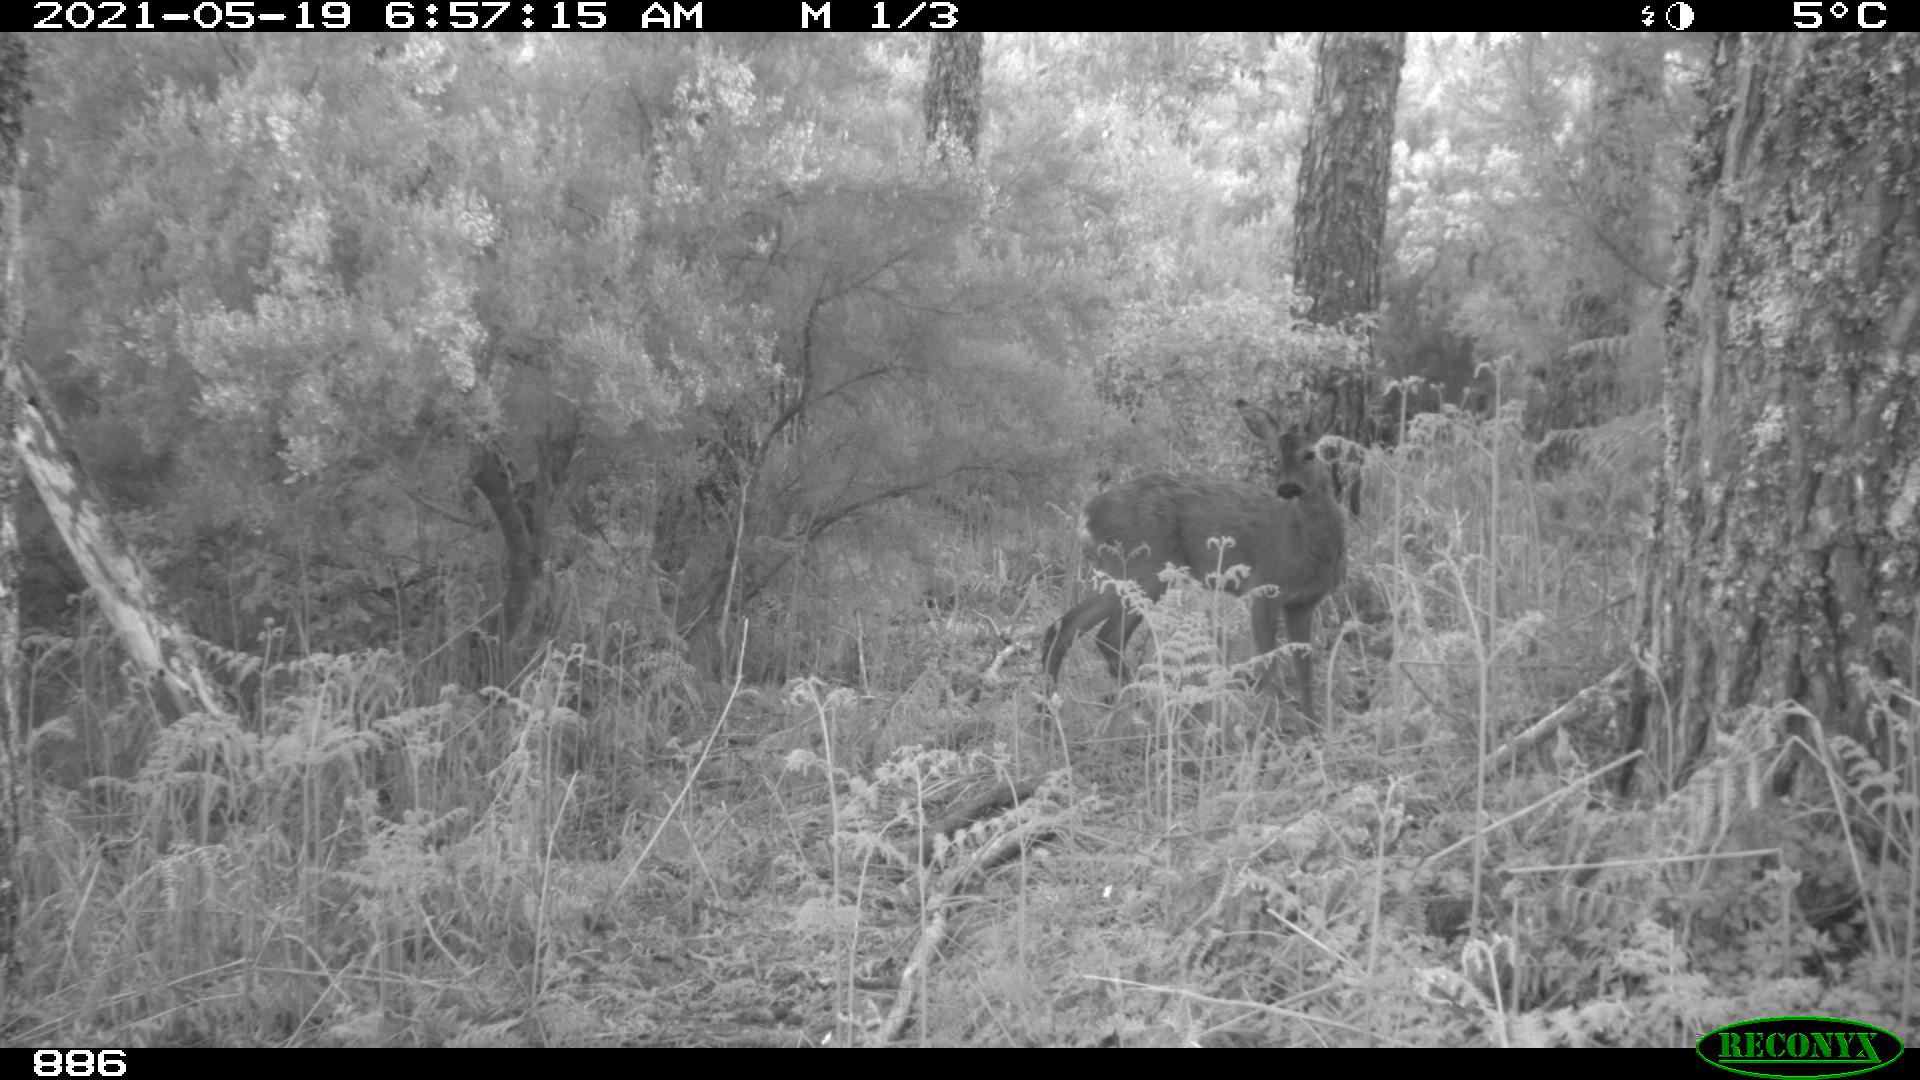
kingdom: Animalia
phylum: Chordata
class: Mammalia
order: Artiodactyla
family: Cervidae
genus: Capreolus
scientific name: Capreolus capreolus
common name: Western roe deer
